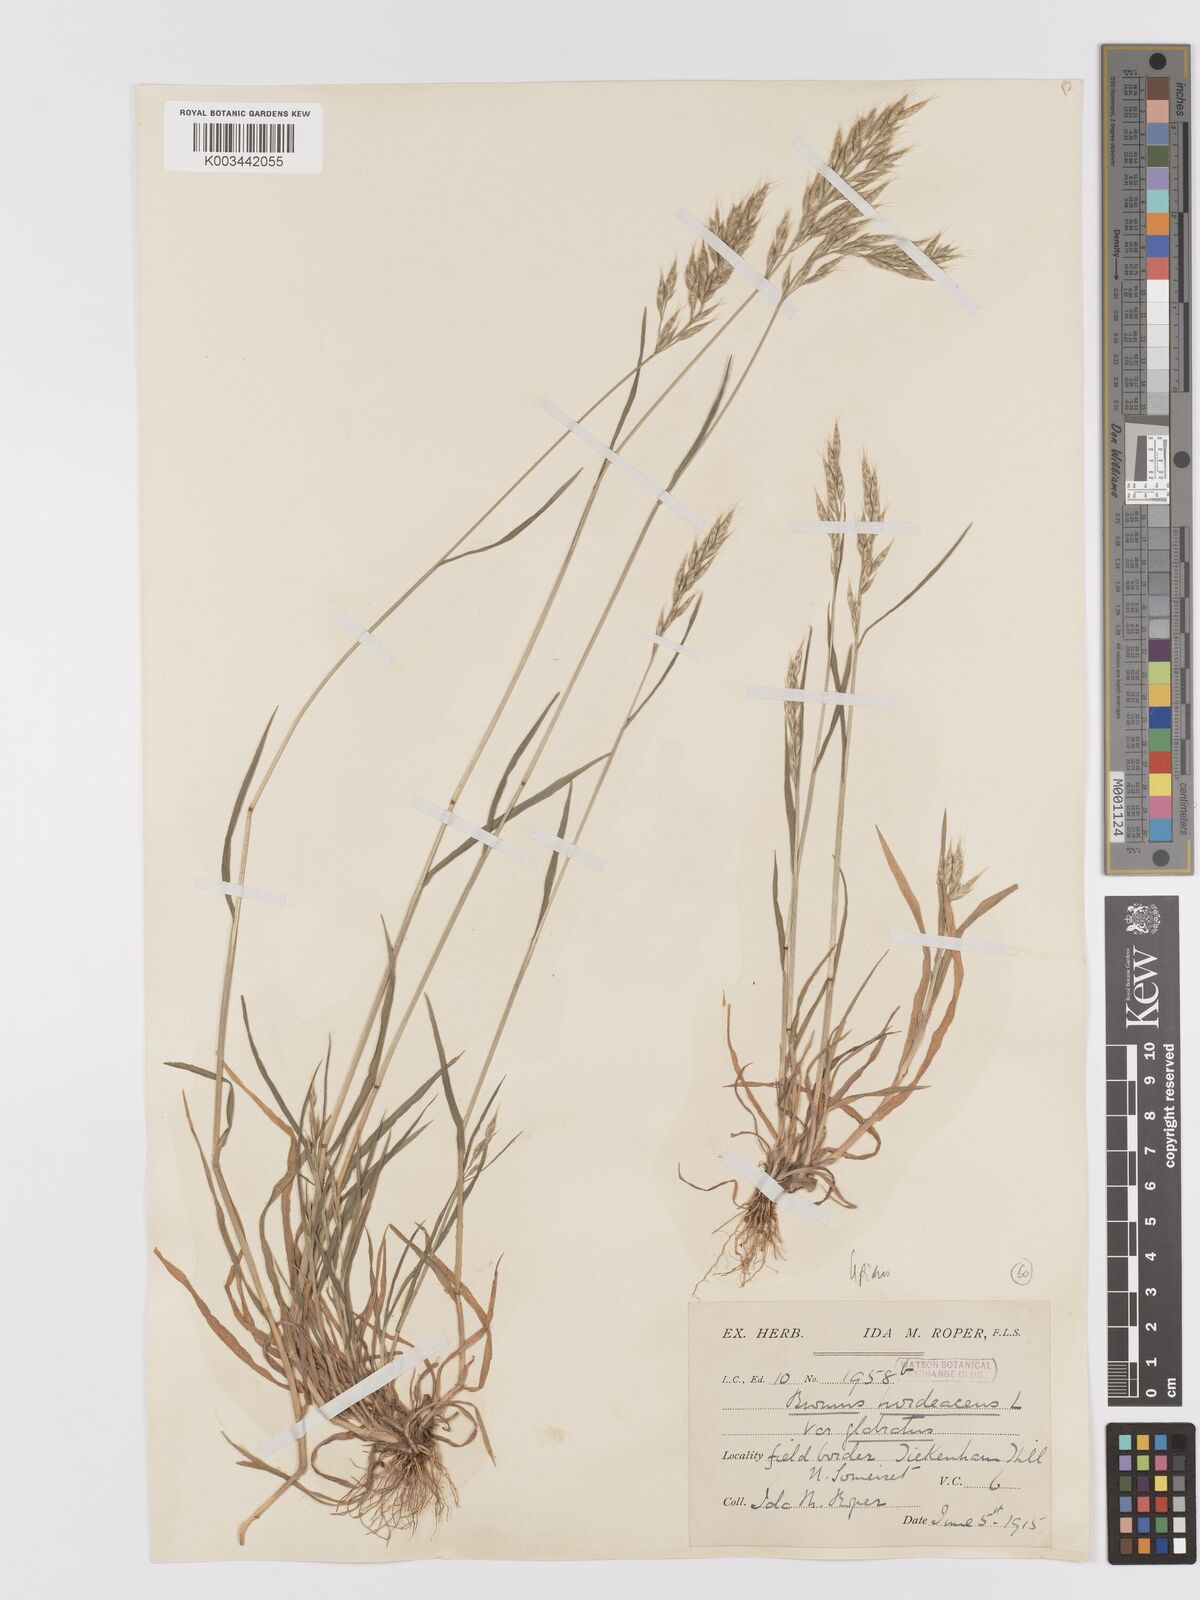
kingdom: Plantae
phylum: Tracheophyta
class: Liliopsida
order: Poales
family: Poaceae
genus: Bromus
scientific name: Bromus lepidus
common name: Slender soft-brome
